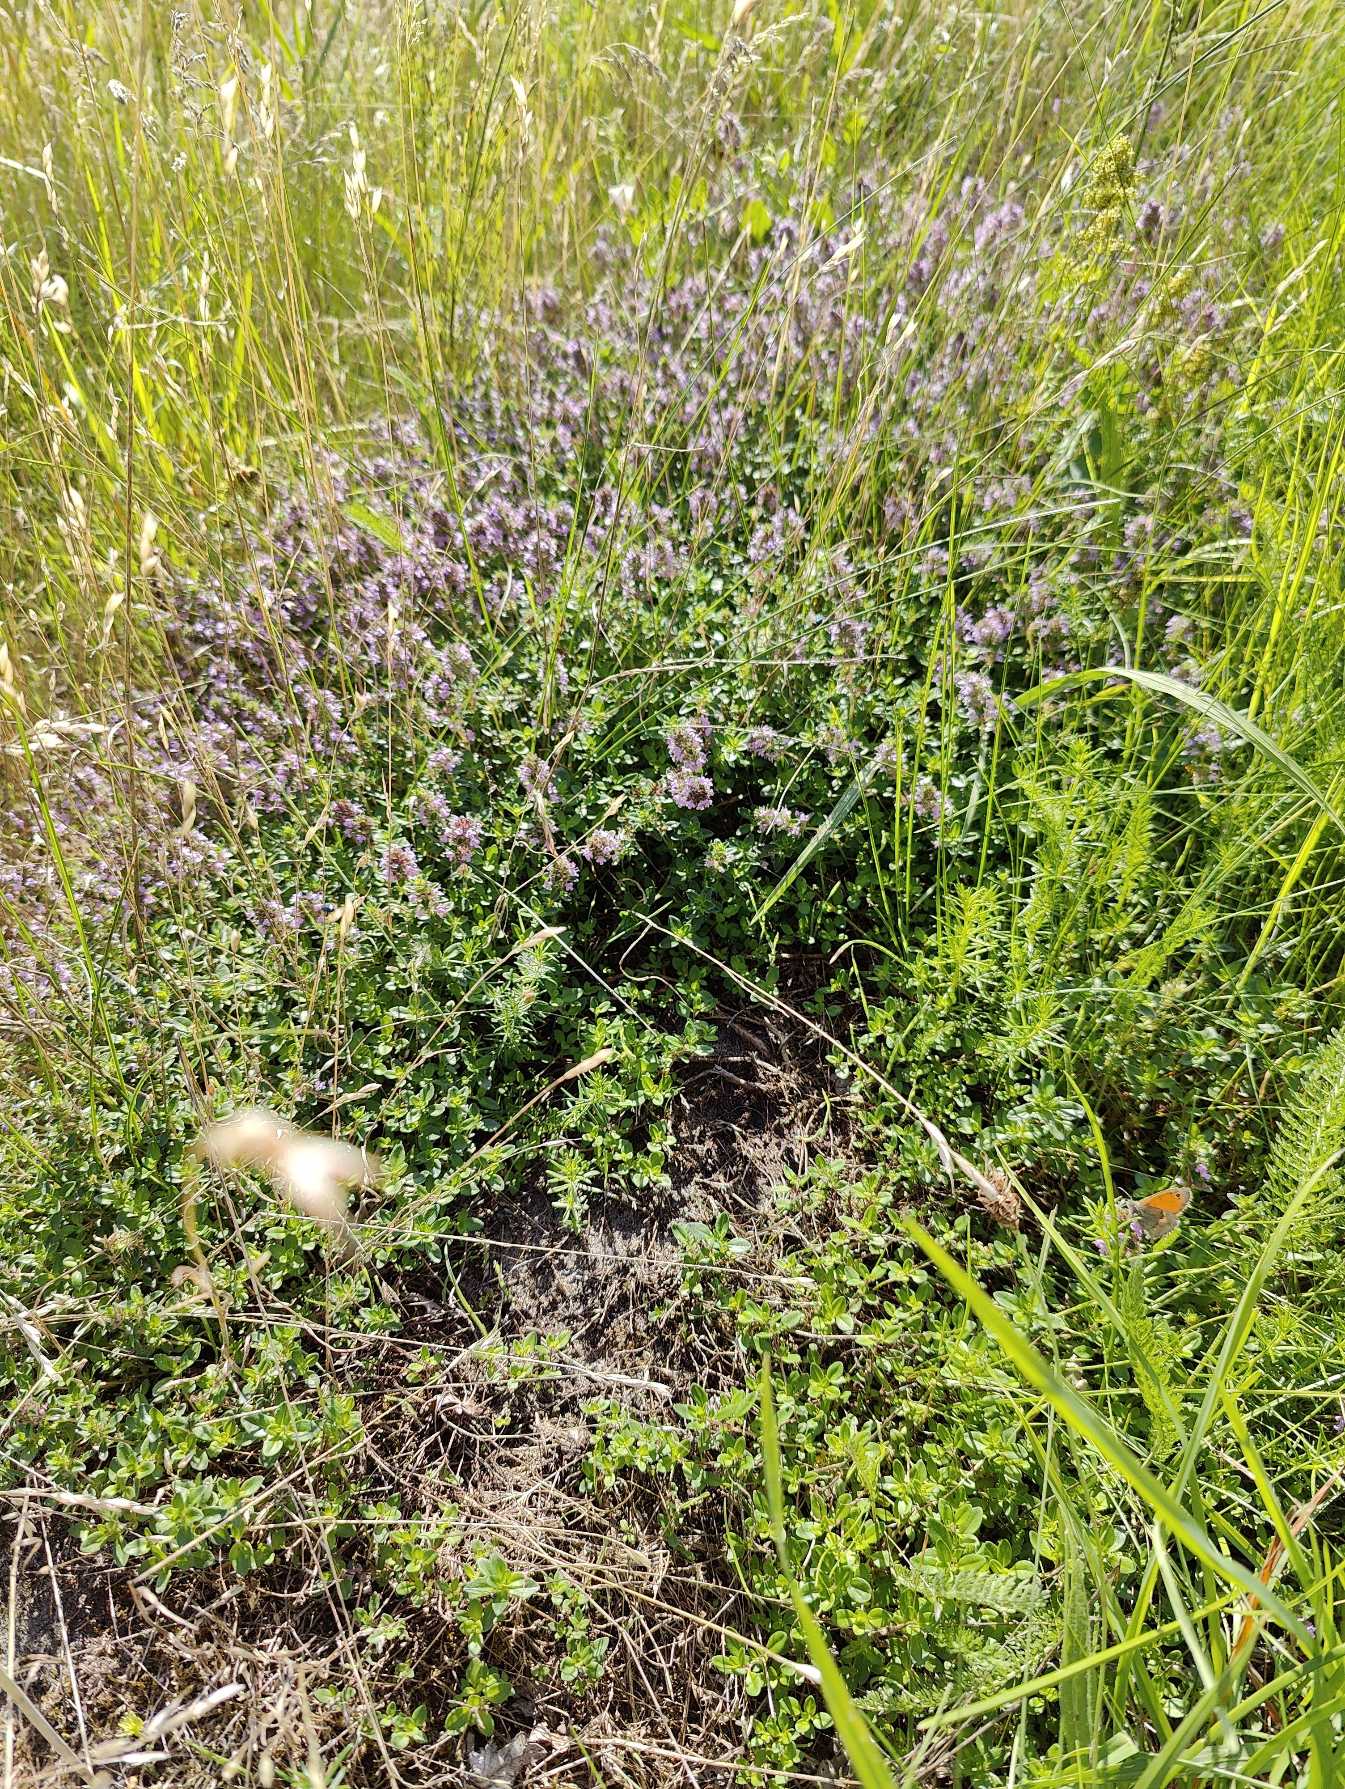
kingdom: Plantae
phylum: Tracheophyta
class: Magnoliopsida
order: Lamiales
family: Lamiaceae
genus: Thymus
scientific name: Thymus pulegioides
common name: Bredbladet timian
